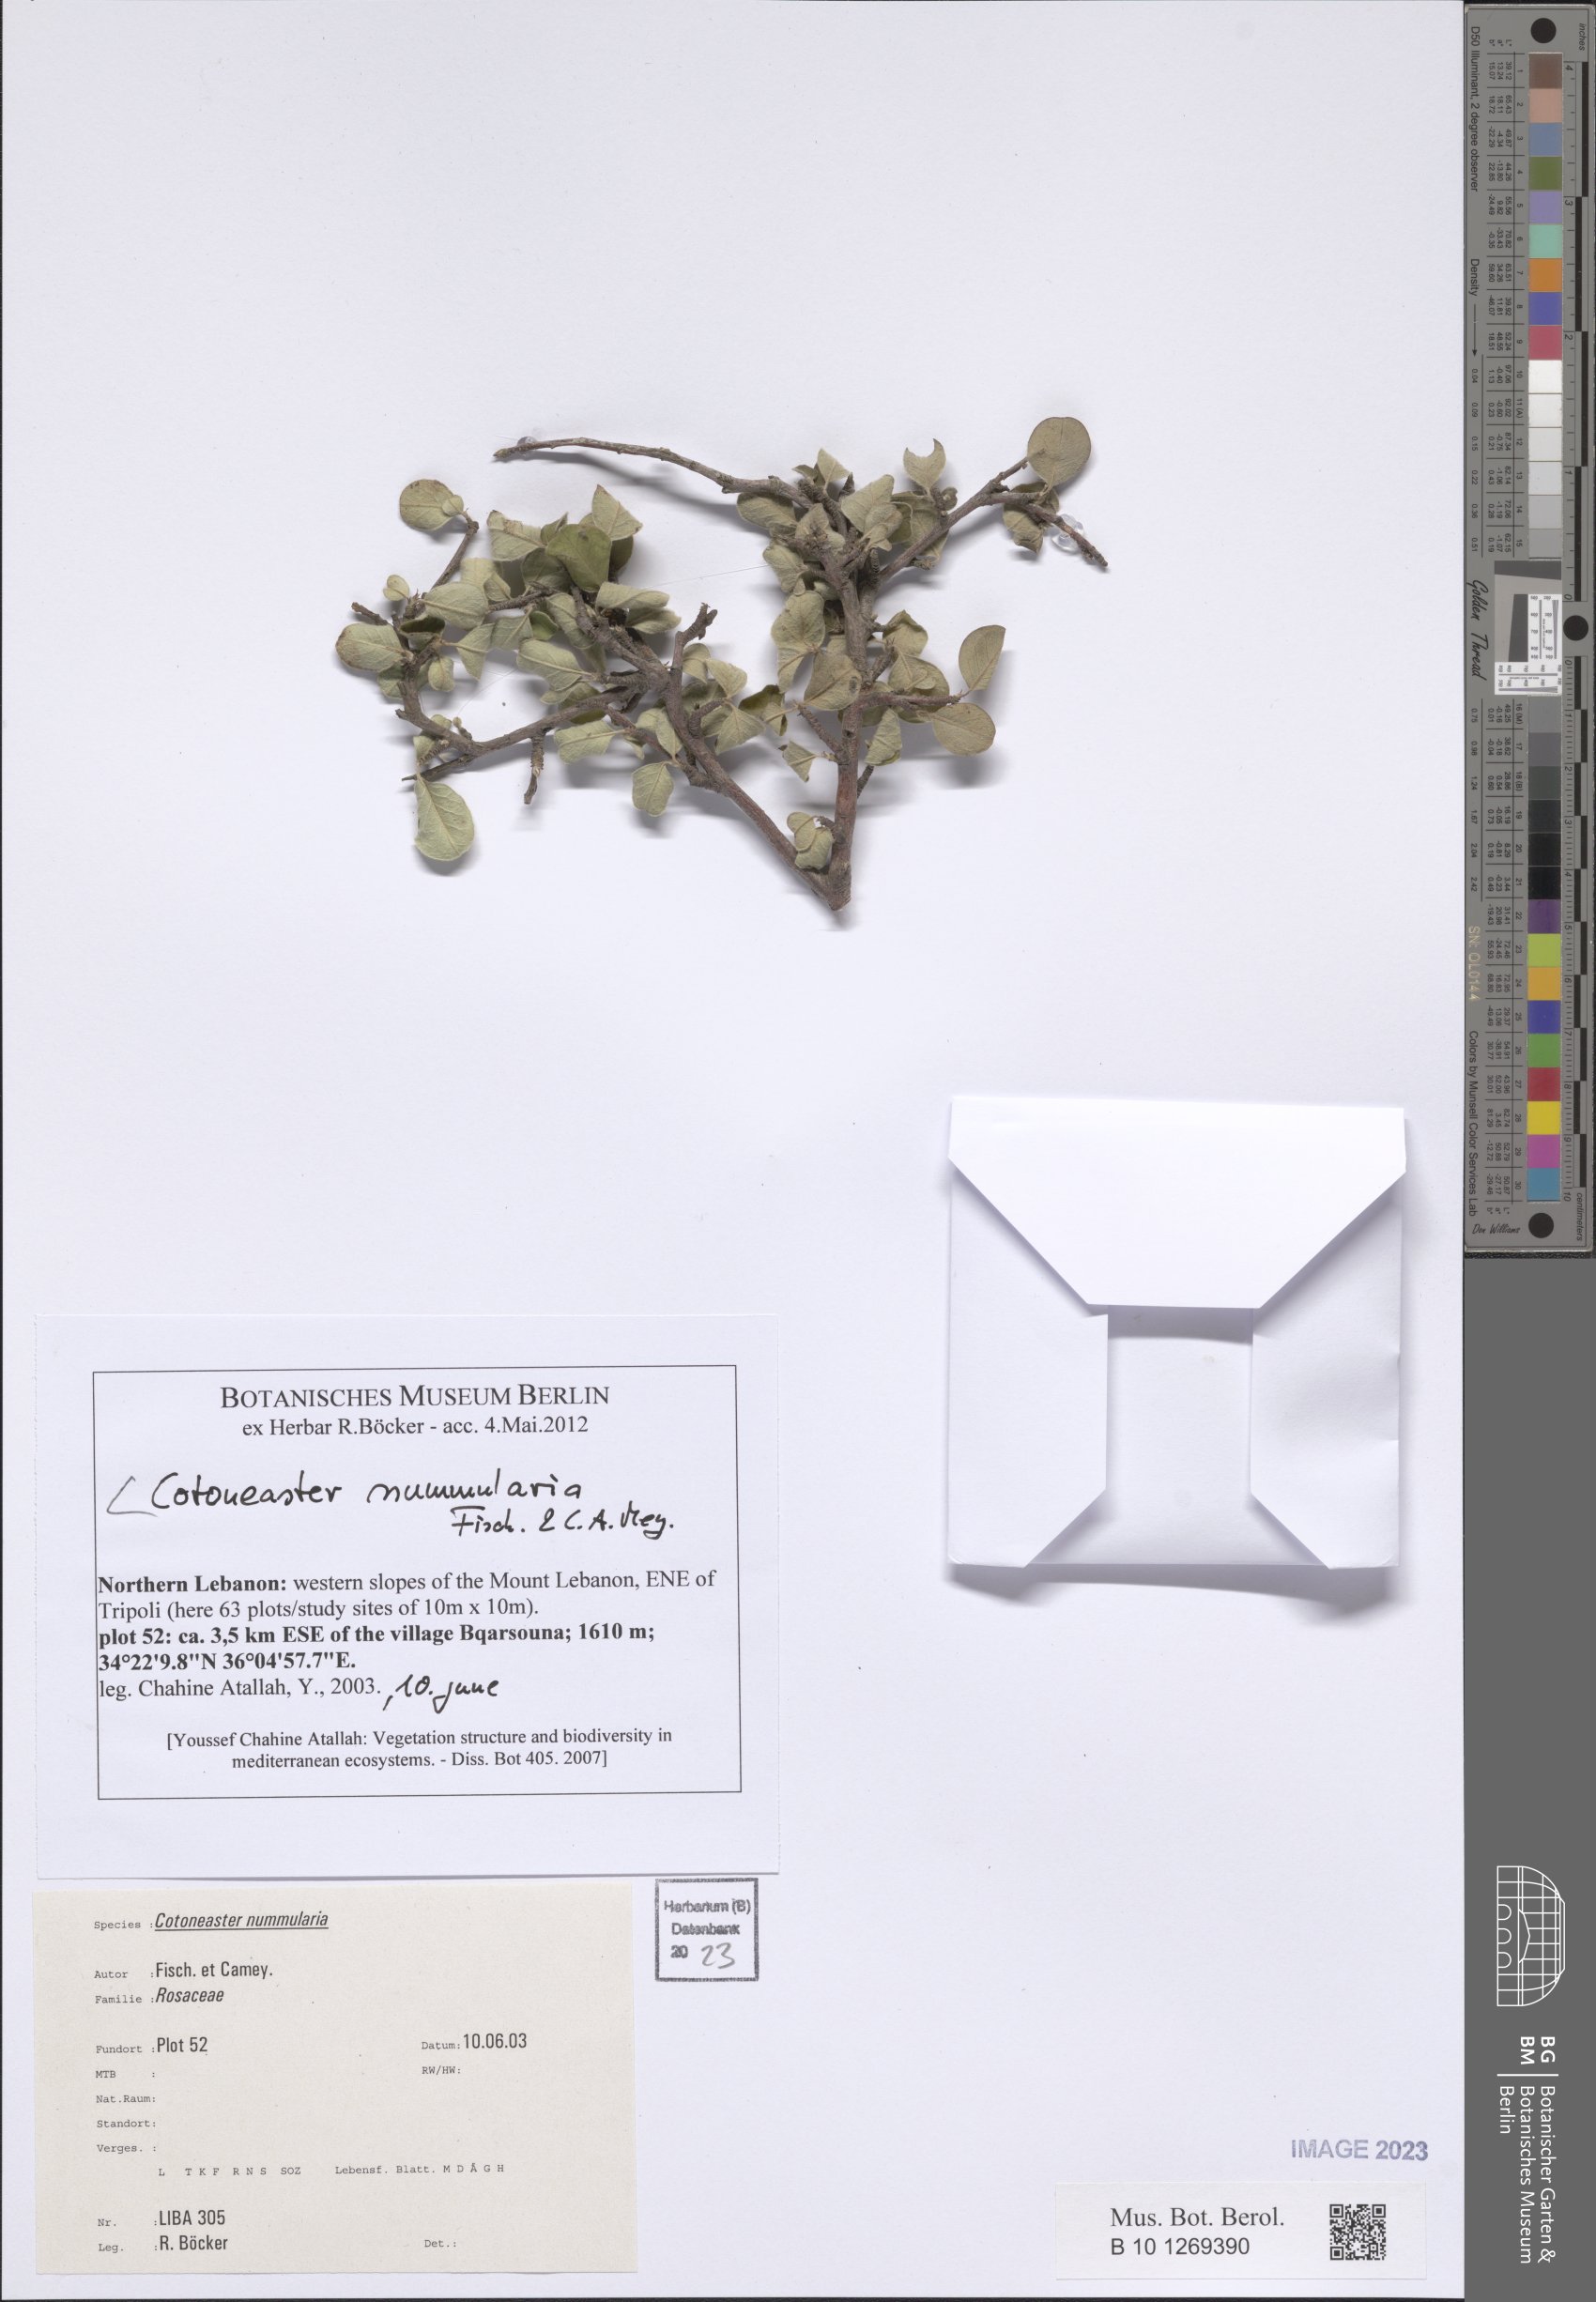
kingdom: Plantae
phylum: Tracheophyta
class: Magnoliopsida
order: Rosales
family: Rosaceae
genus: Cotoneaster
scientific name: Cotoneaster nummularius
